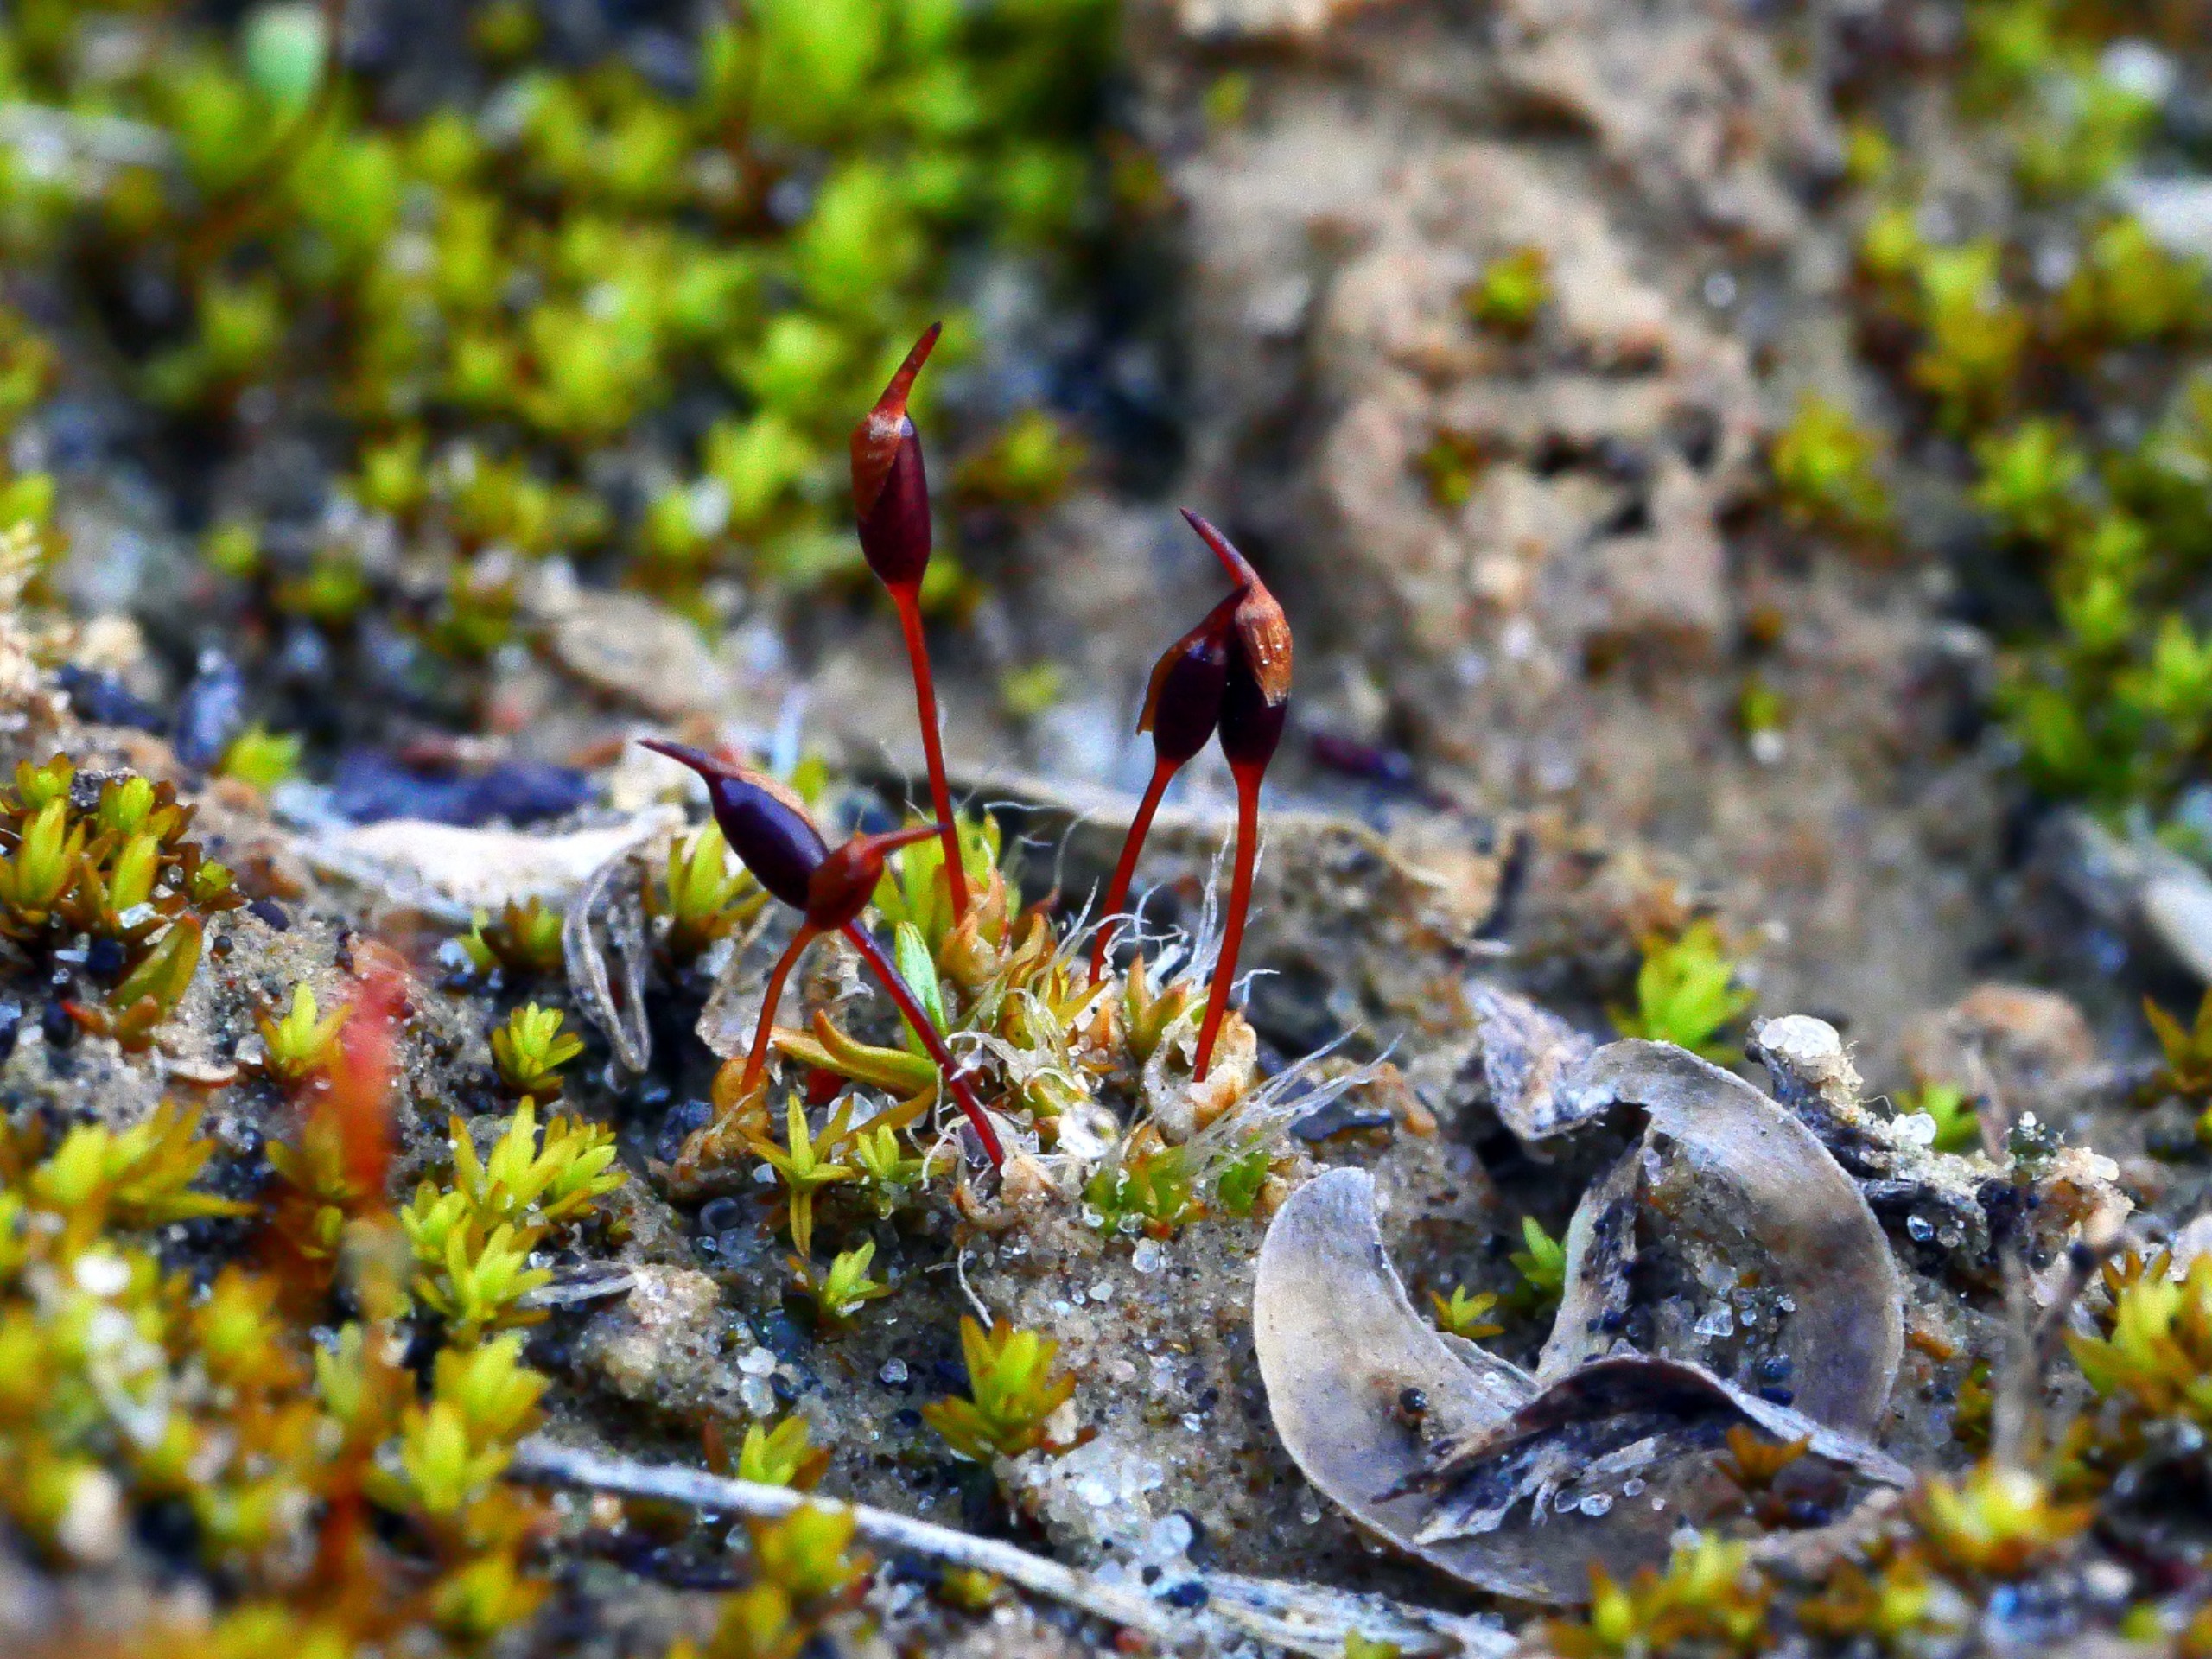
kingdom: Plantae
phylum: Bryophyta
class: Bryopsida
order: Pottiales
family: Pottiaceae
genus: Pterygoneurum
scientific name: Pterygoneurum ovatum
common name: Langhåret vingenerve
